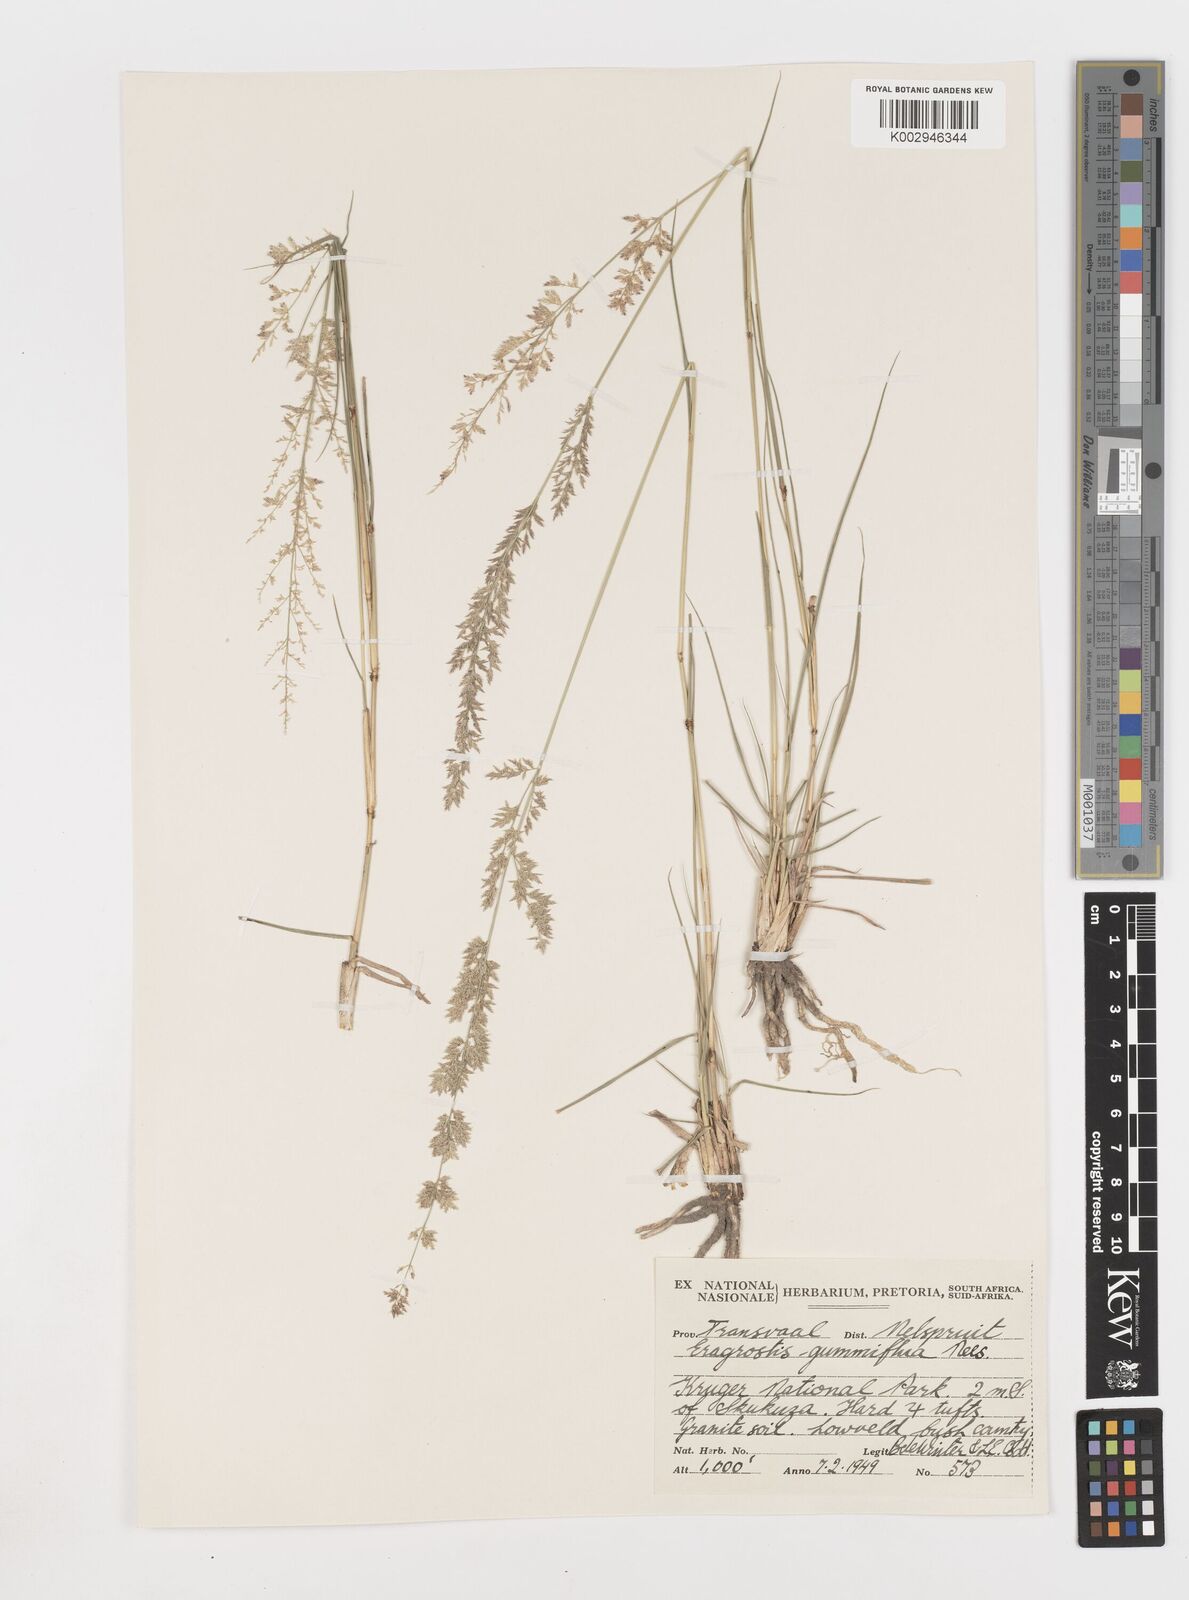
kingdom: Plantae
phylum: Tracheophyta
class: Liliopsida
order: Poales
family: Poaceae
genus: Eragrostis
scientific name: Eragrostis gummiflua
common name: Gum grass
